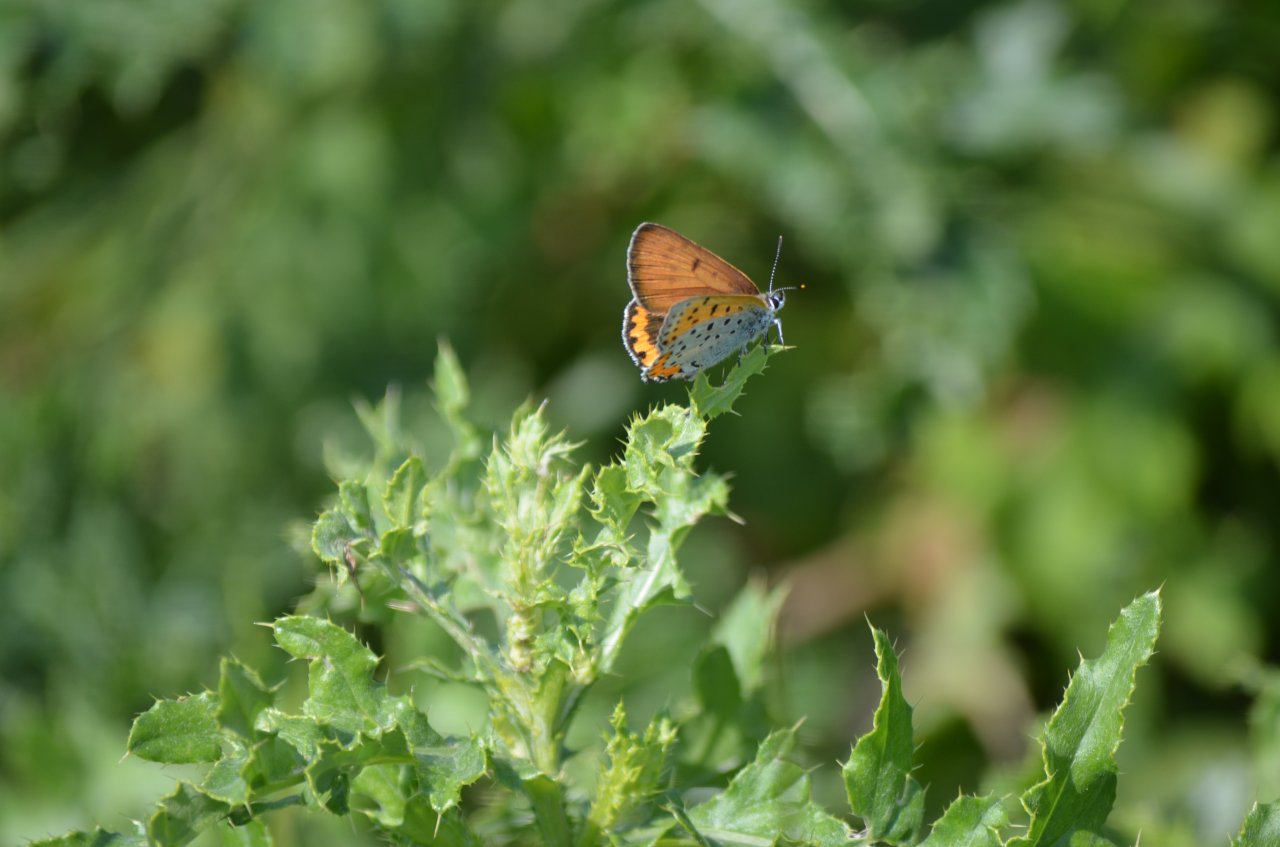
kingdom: Animalia
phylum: Arthropoda
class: Insecta
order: Lepidoptera
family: Sesiidae
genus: Sesia
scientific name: Sesia Lycaena hyllus
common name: Bronze Copper
